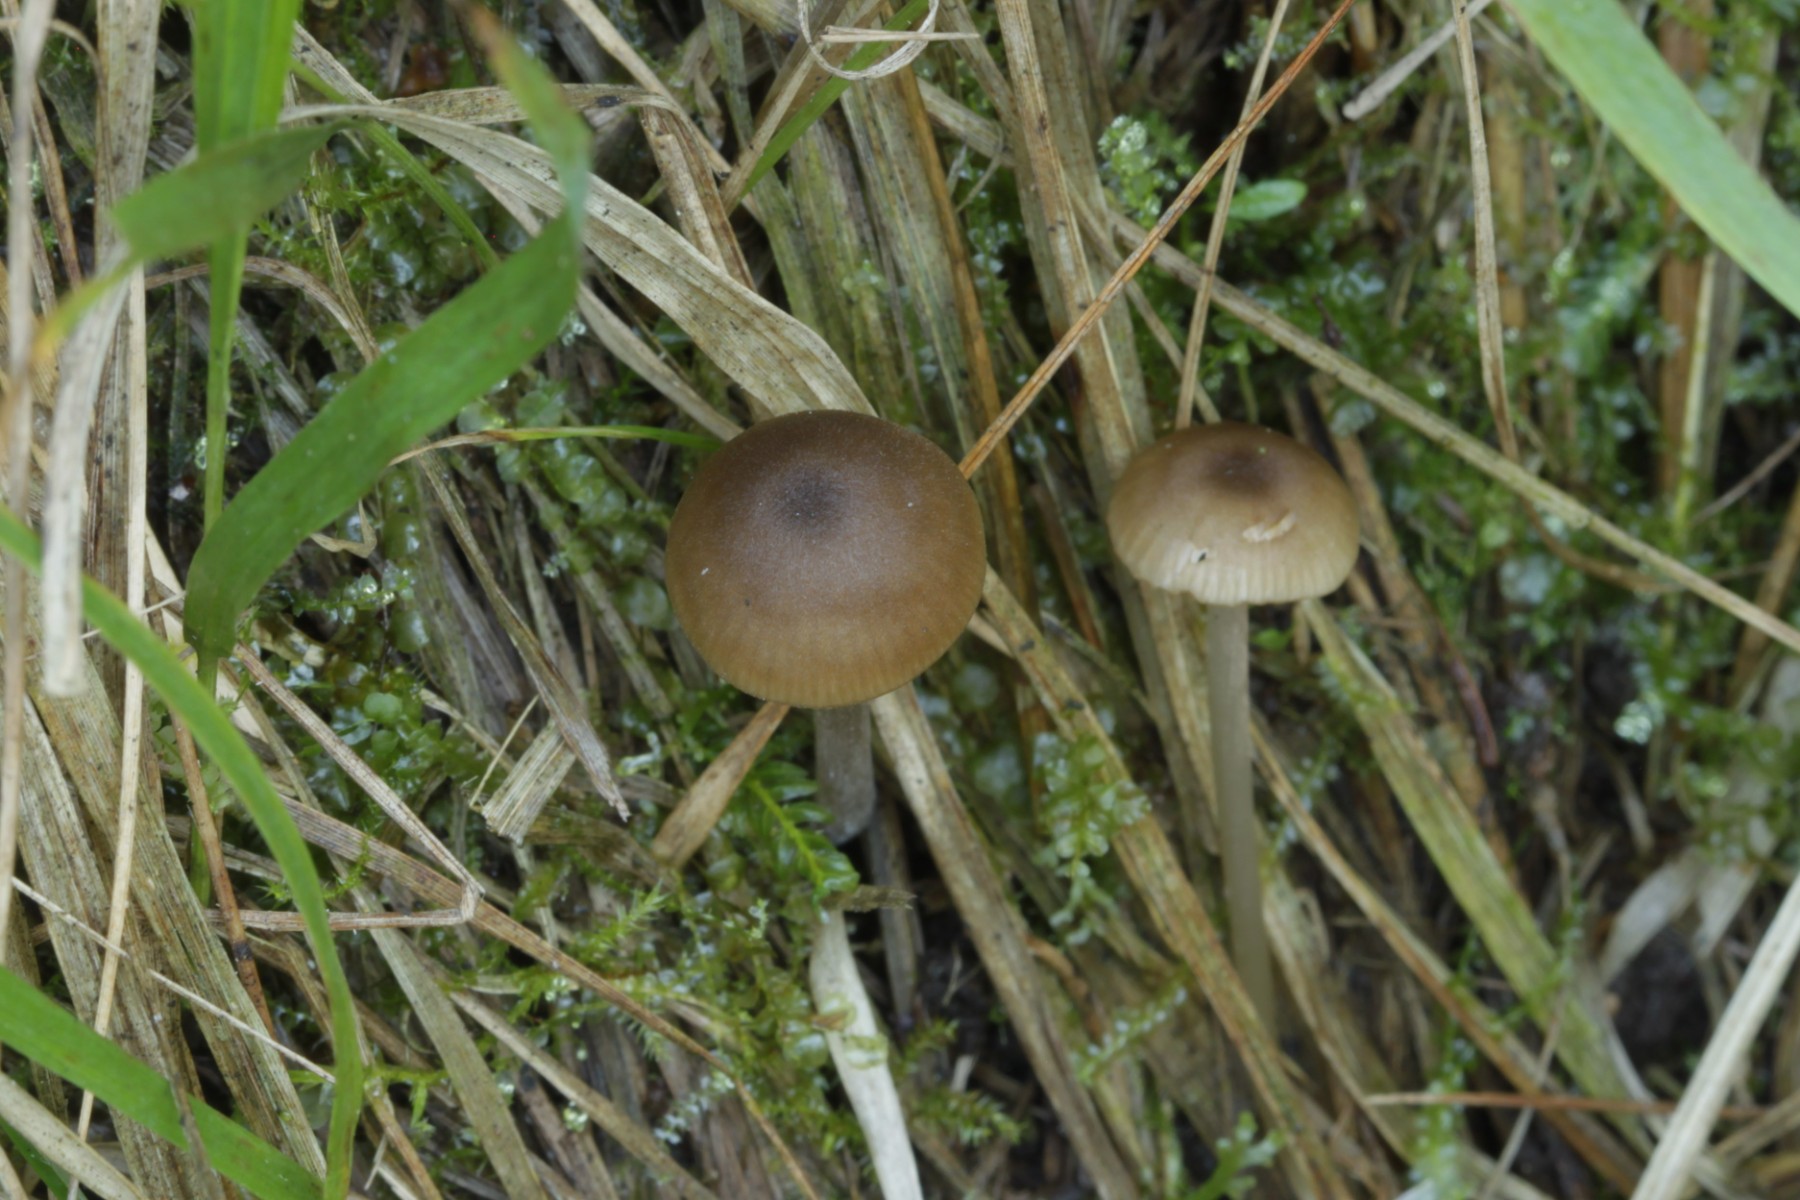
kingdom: Fungi
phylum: Basidiomycota
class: Agaricomycetes
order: Agaricales
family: Entolomataceae
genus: Entoloma
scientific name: Entoloma
